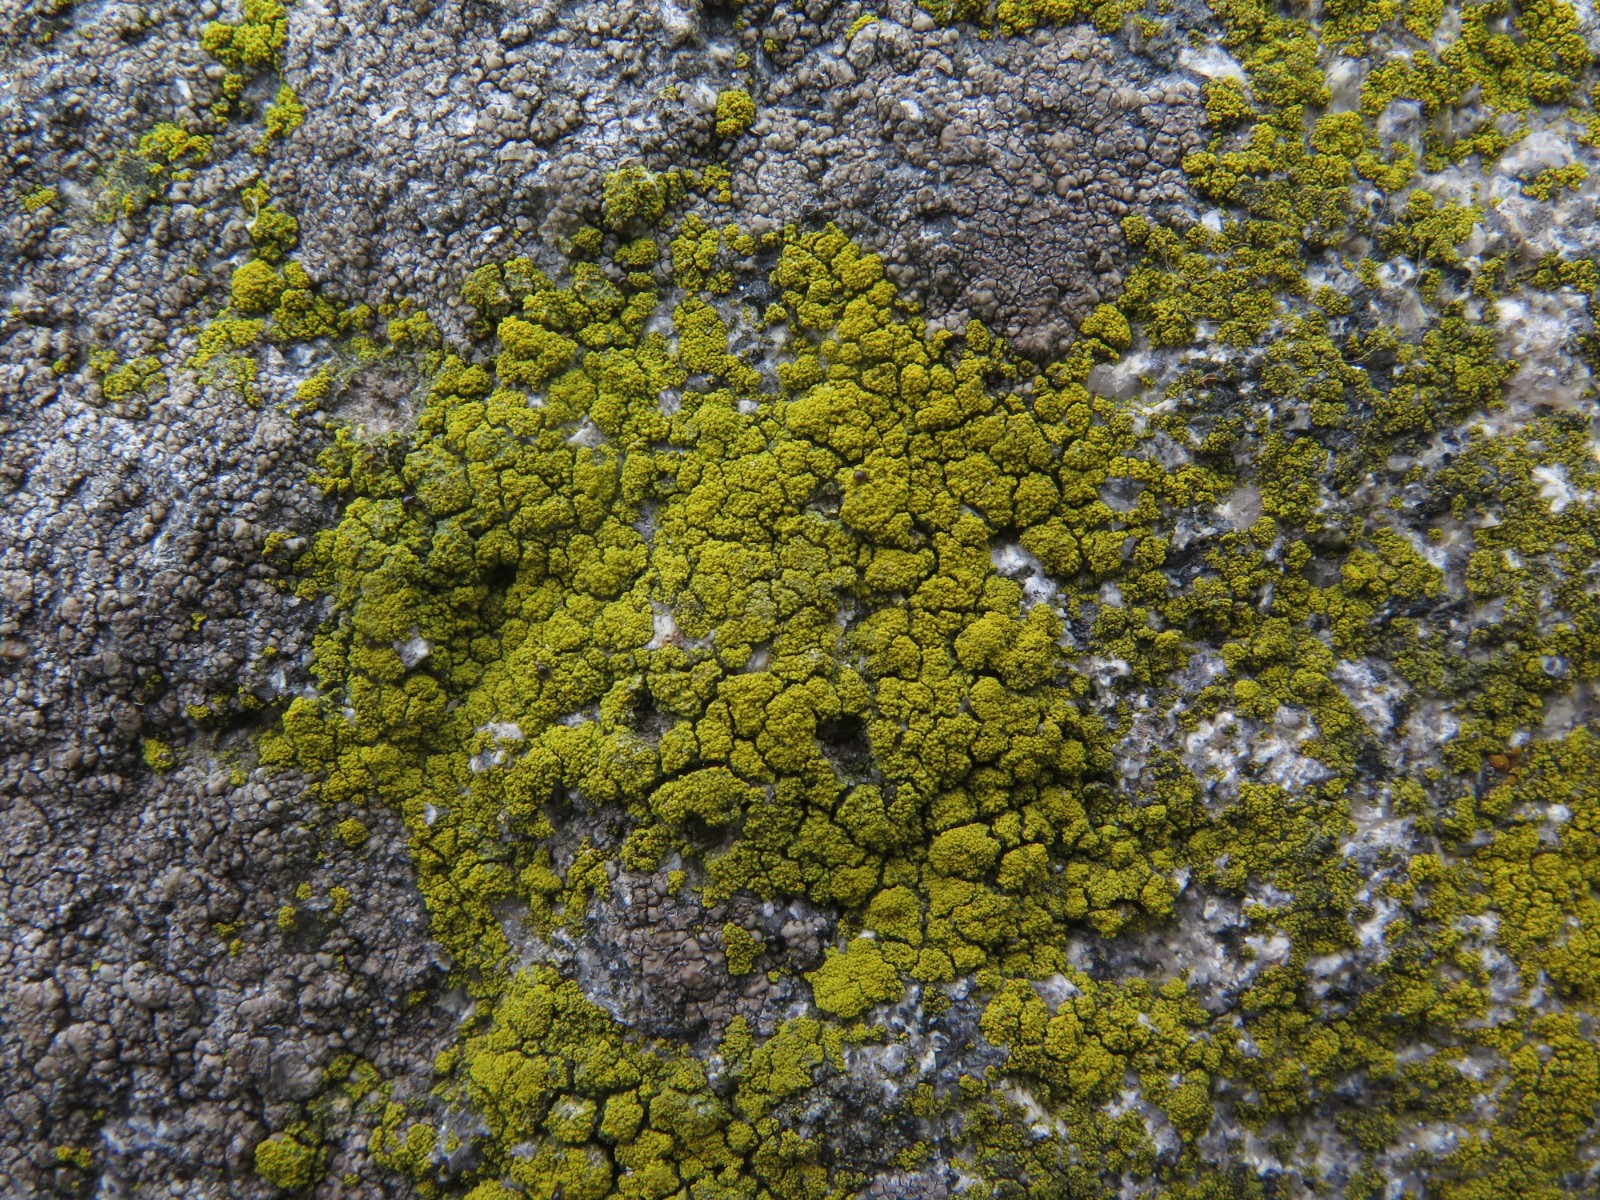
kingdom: Fungi
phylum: Ascomycota
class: Candelariomycetes
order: Candelariales
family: Candelariaceae
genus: Candelariella
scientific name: Candelariella vitellina
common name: almindelig æggeblommelav
